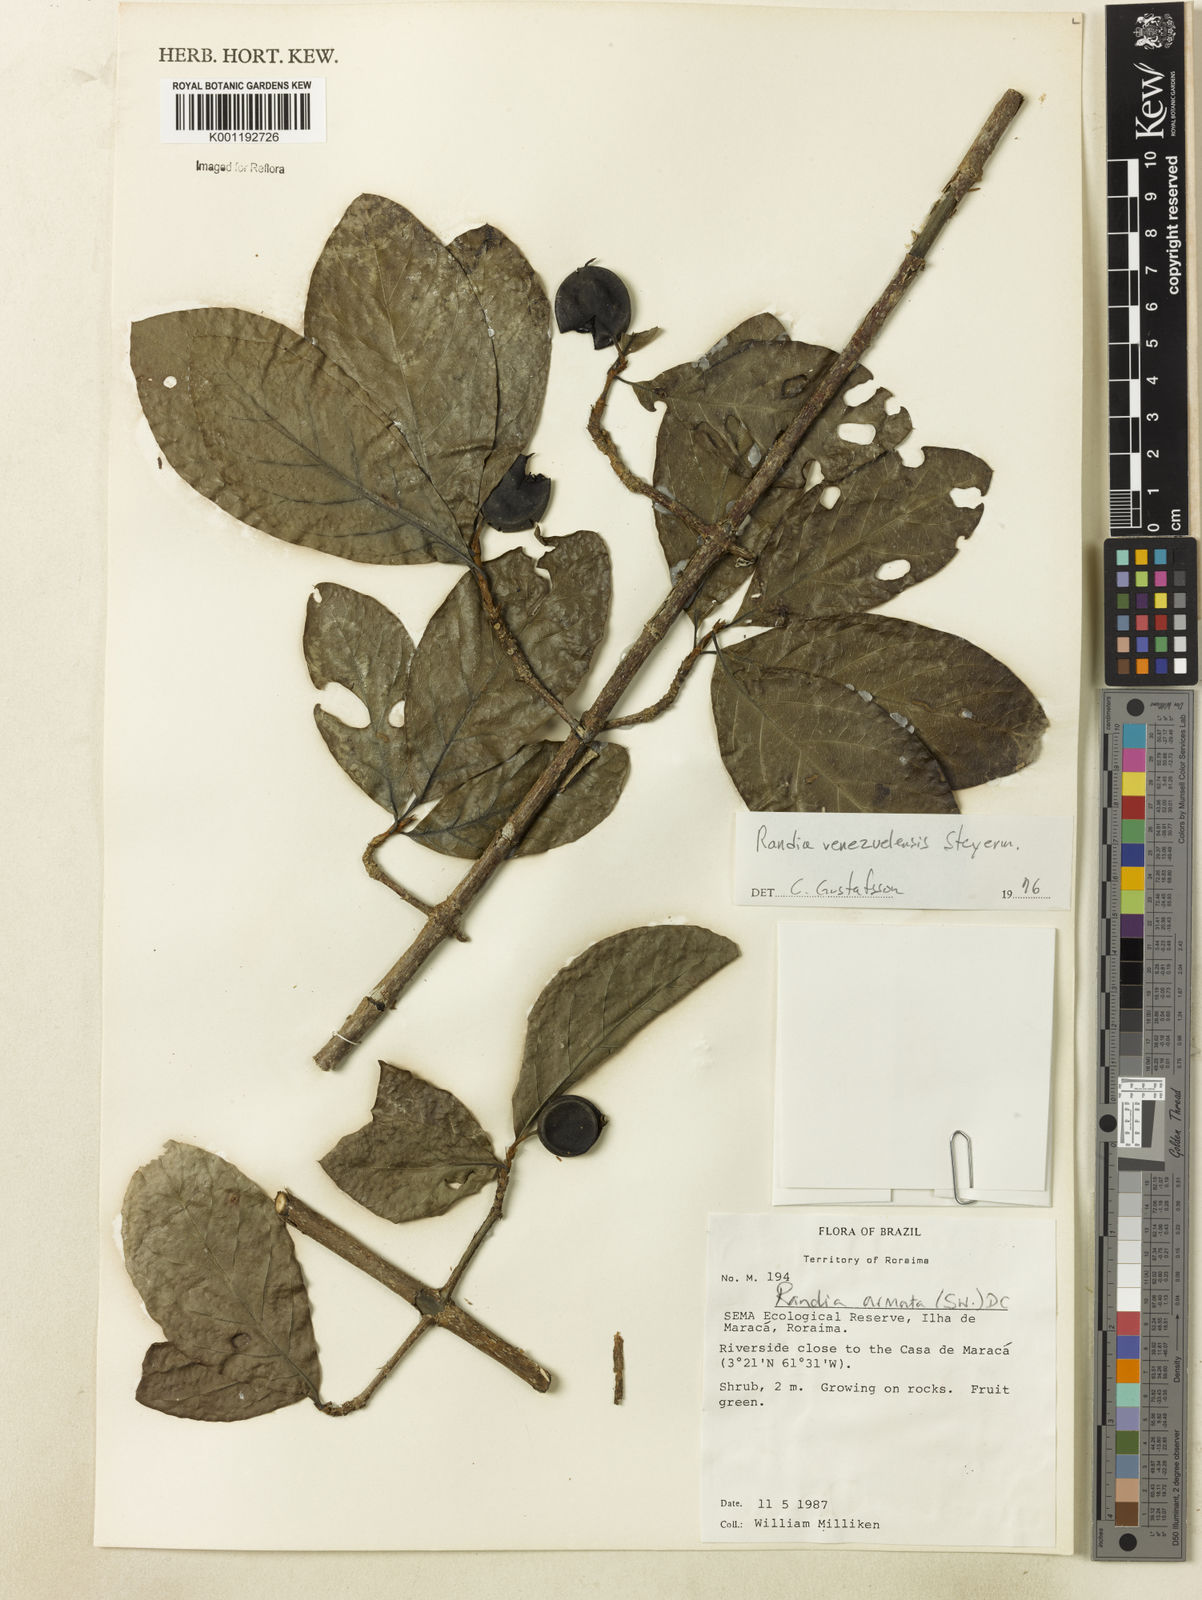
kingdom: Plantae
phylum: Tracheophyta
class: Magnoliopsida
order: Gentianales
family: Rubiaceae
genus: Randia
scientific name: Randia venezuelensis
